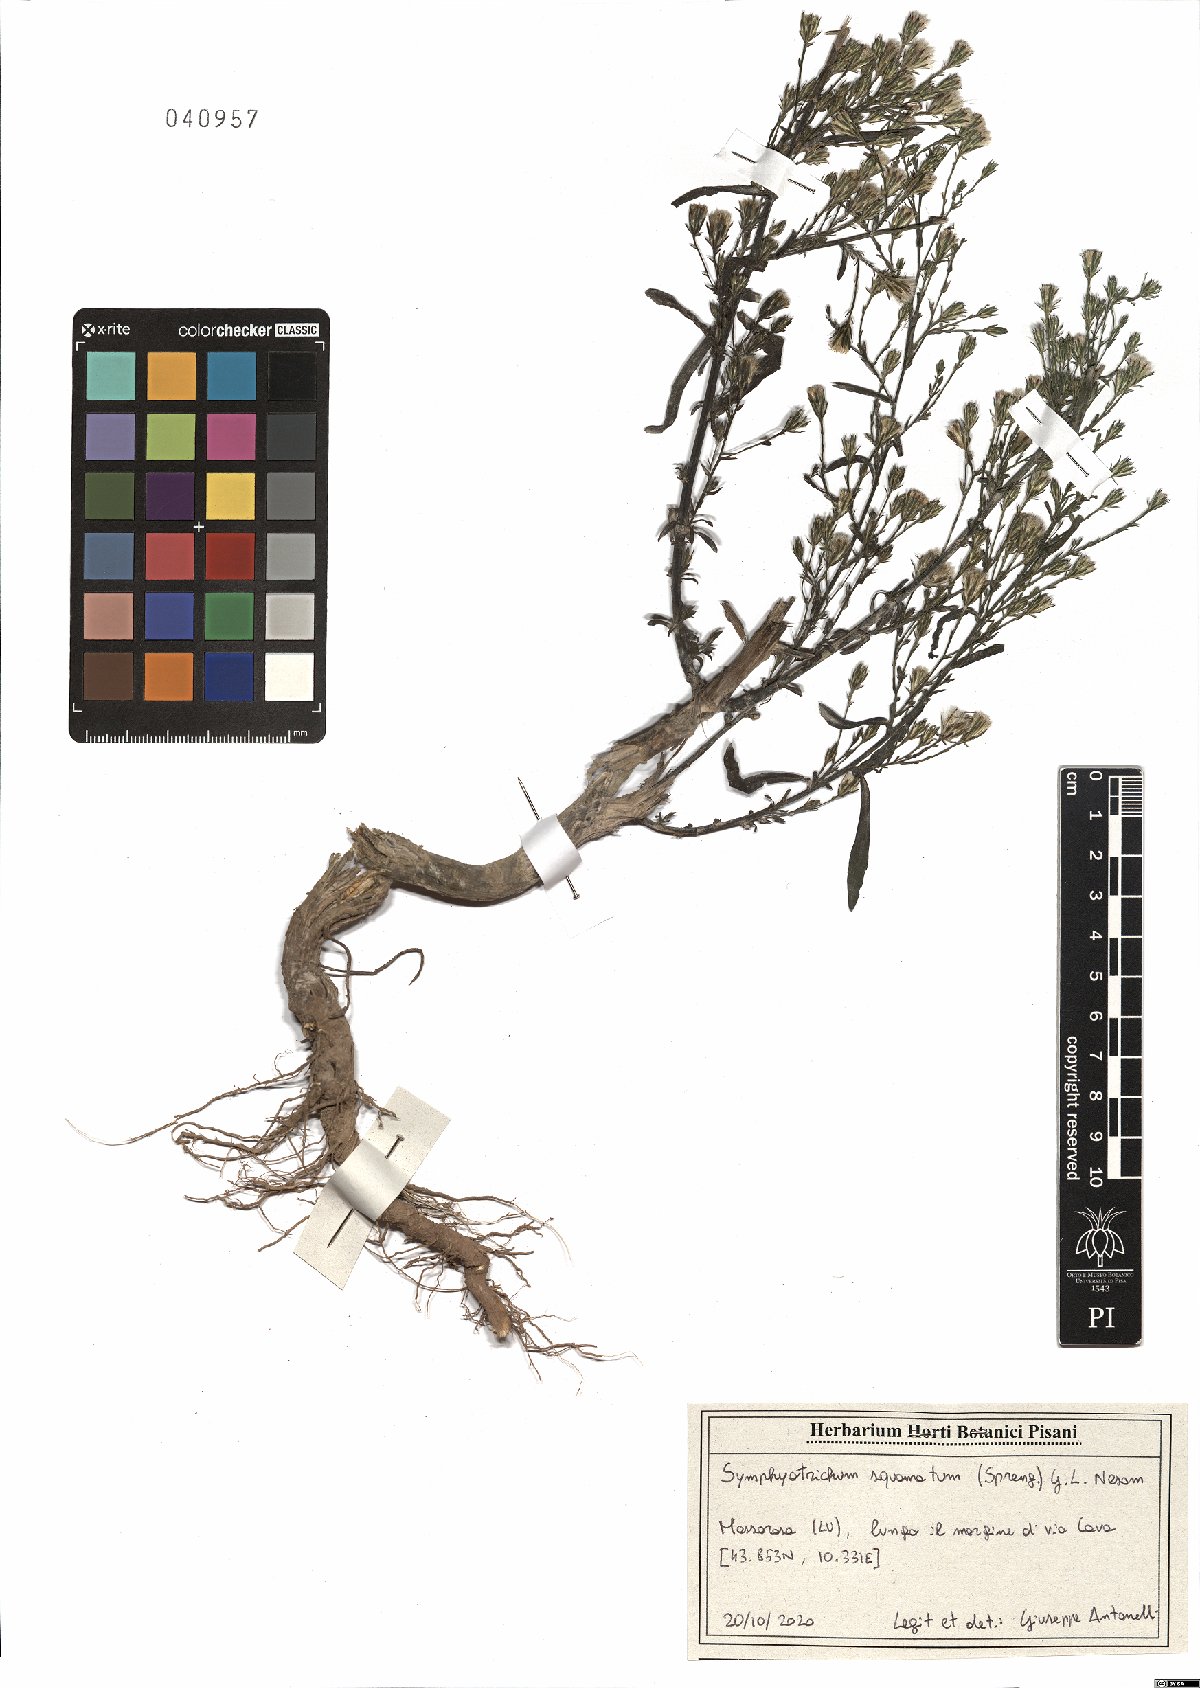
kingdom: Plantae
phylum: Tracheophyta
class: Magnoliopsida
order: Asterales
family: Asteraceae
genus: Symphyotrichum
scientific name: Symphyotrichum squamatum
